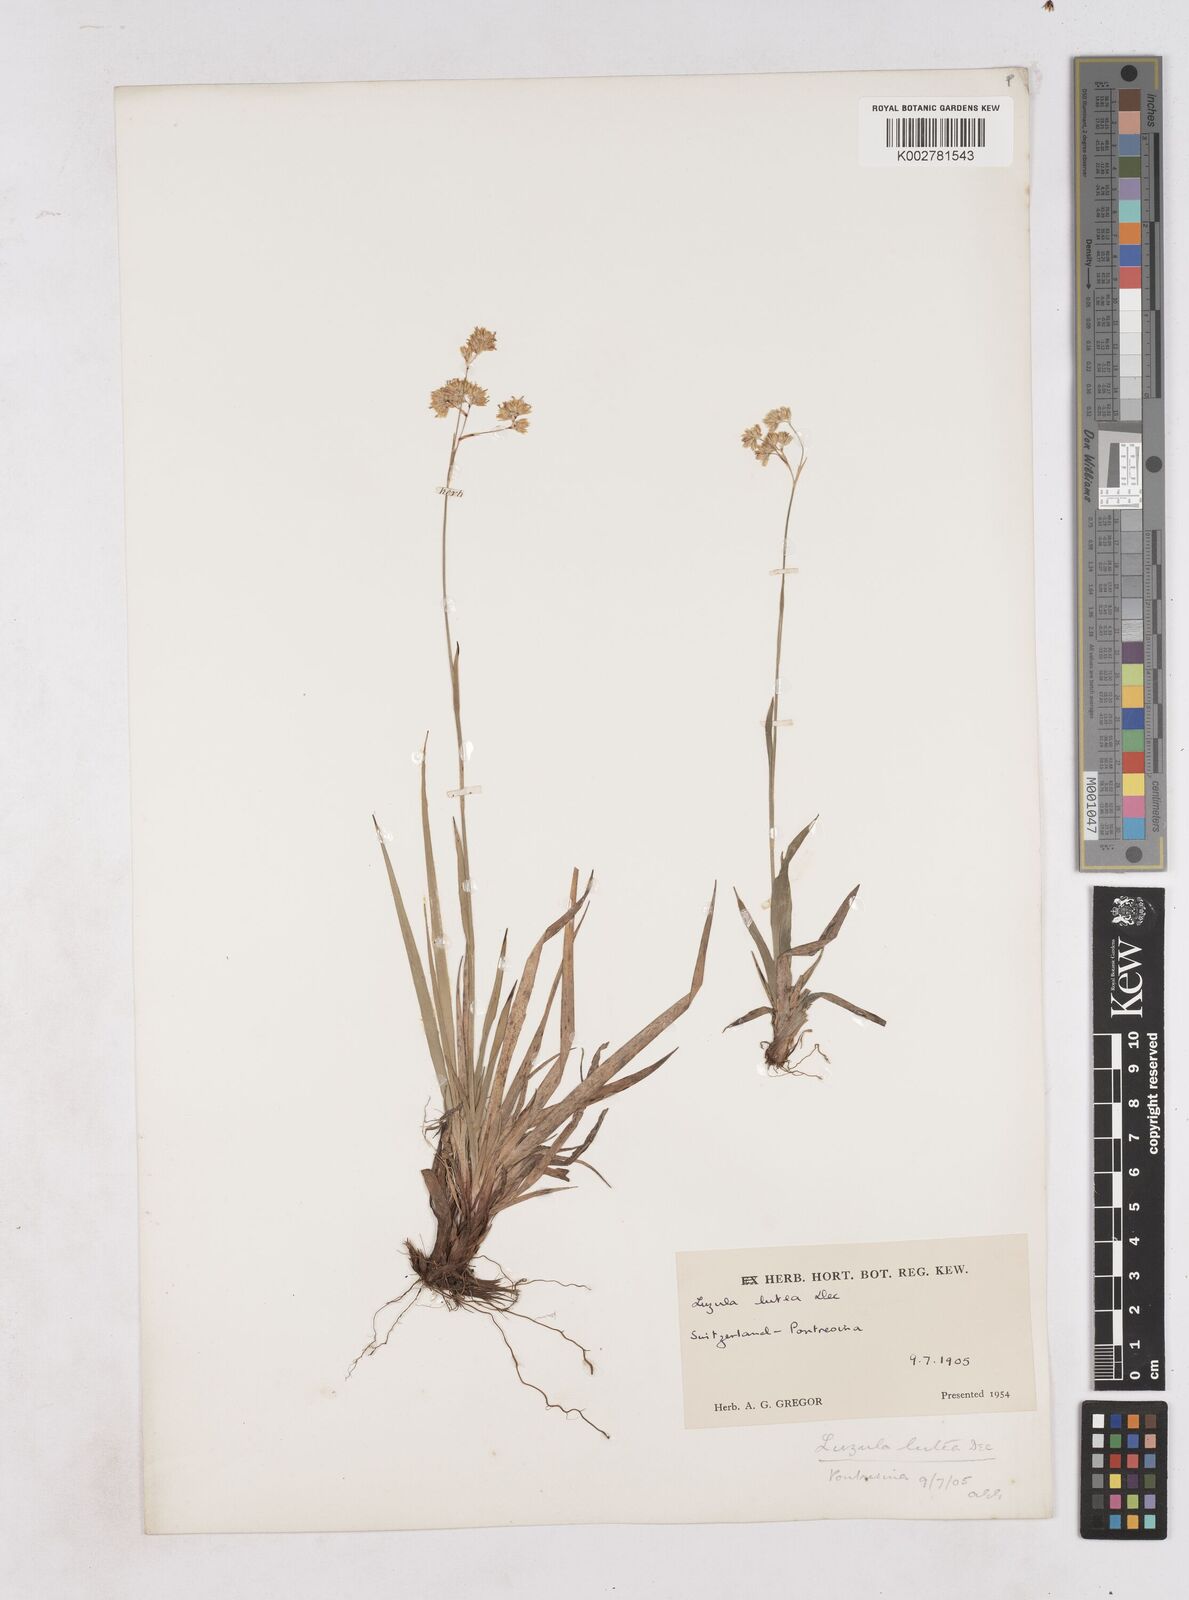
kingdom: Plantae
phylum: Tracheophyta
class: Liliopsida
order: Poales
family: Juncaceae
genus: Luzula
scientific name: Luzula lutea
